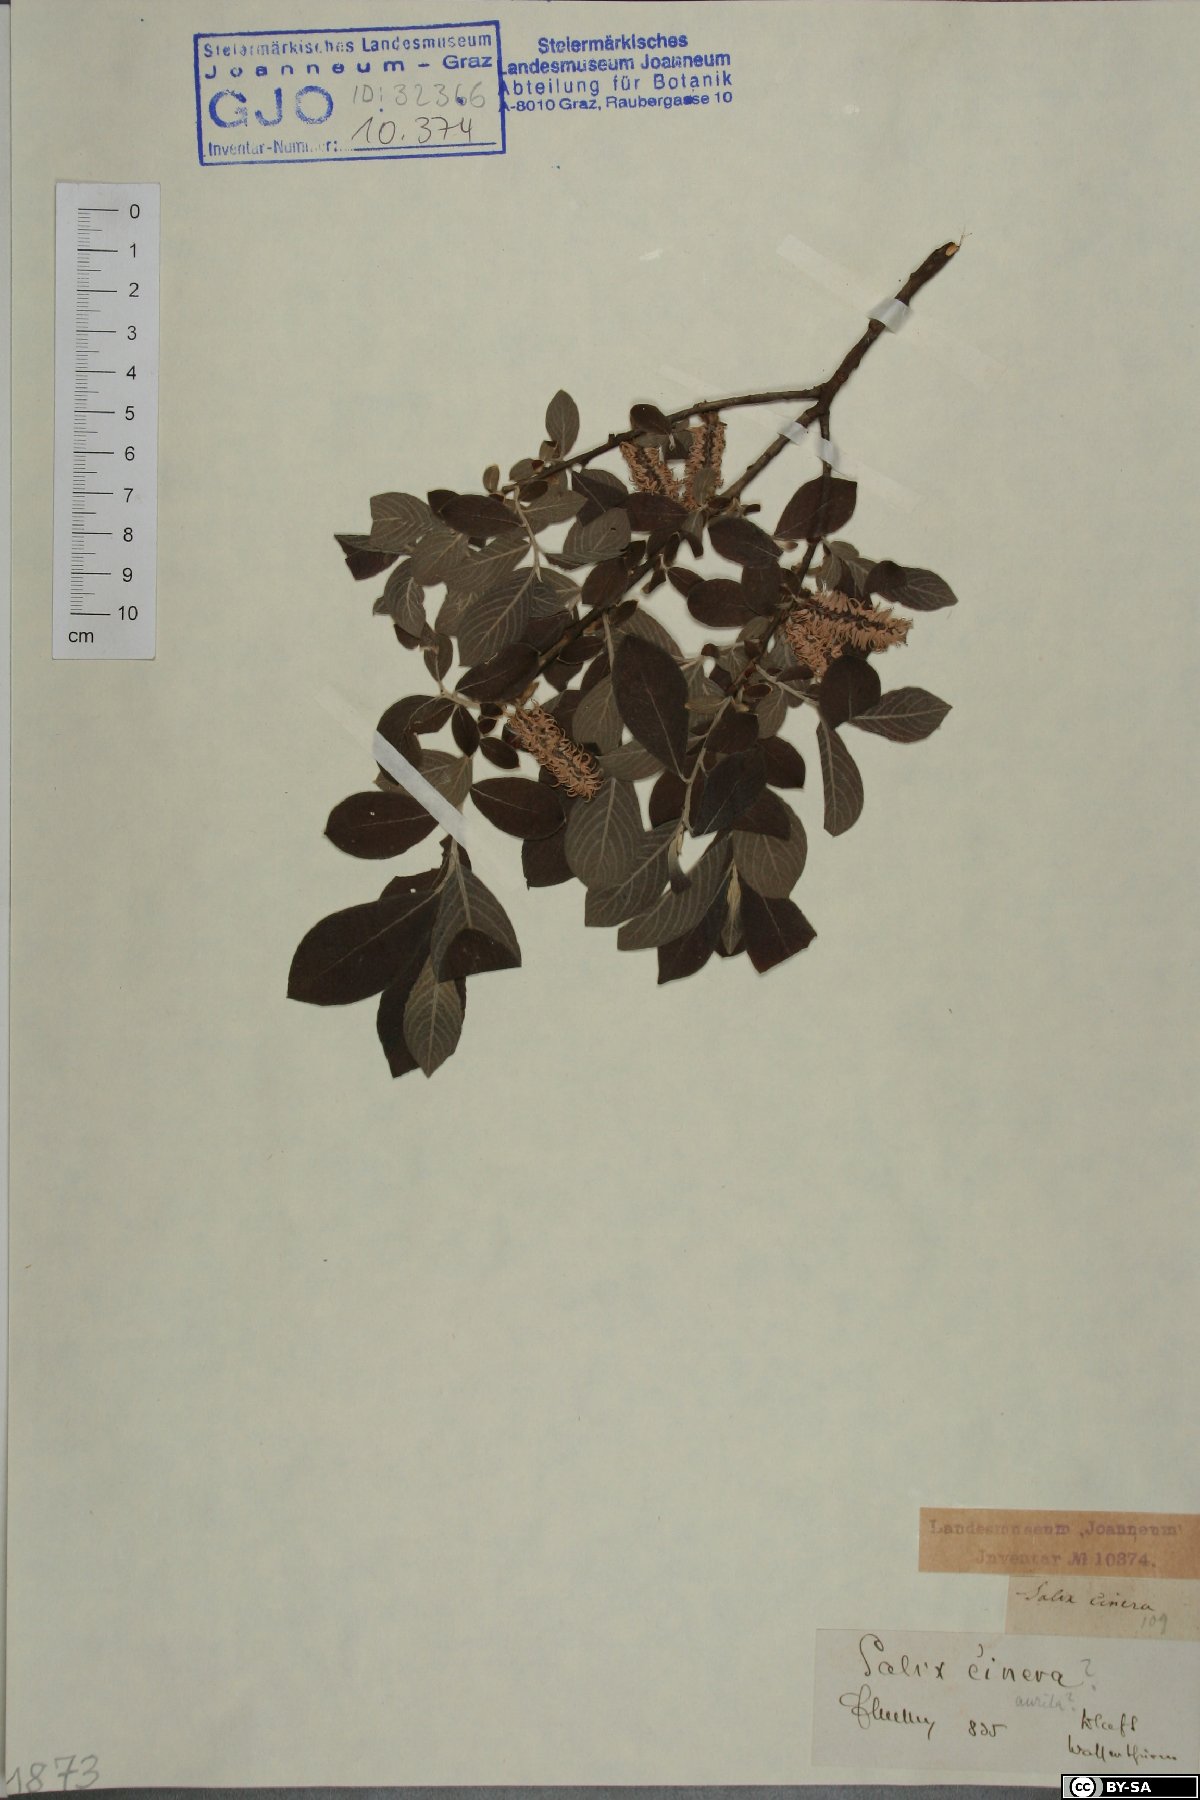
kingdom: Plantae
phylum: Tracheophyta
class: Magnoliopsida
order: Malpighiales
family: Salicaceae
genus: Salix
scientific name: Salix cinerea
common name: Common sallow
